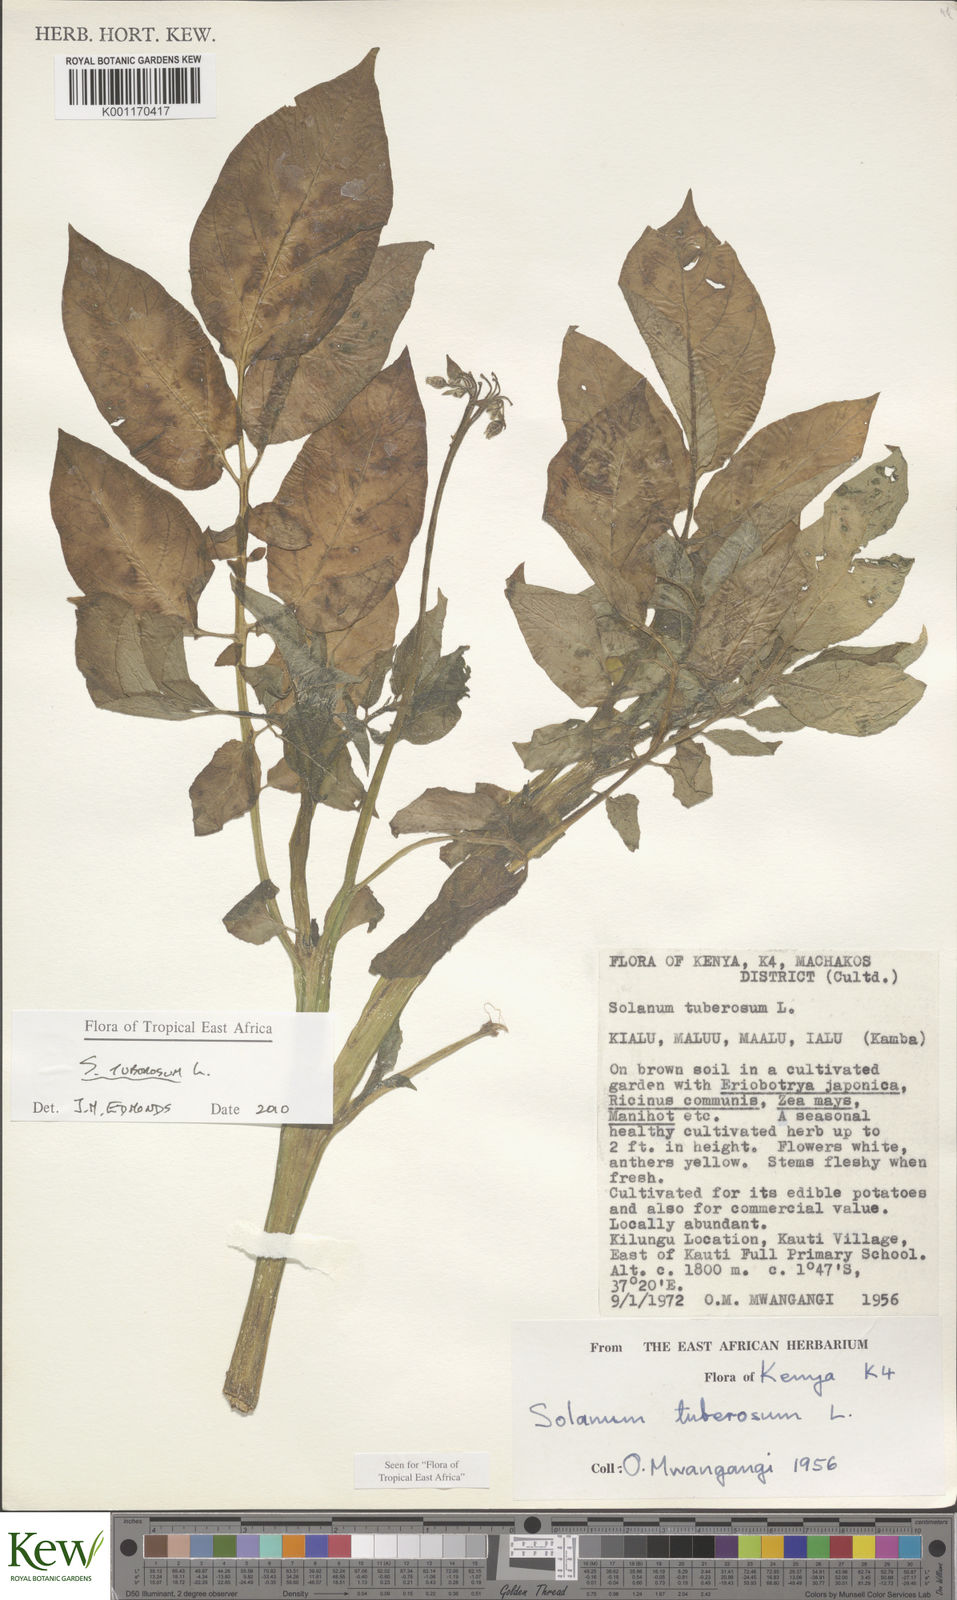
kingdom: Plantae
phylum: Tracheophyta
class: Magnoliopsida
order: Solanales
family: Solanaceae
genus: Solanum
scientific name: Solanum tuberosum
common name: Potato
